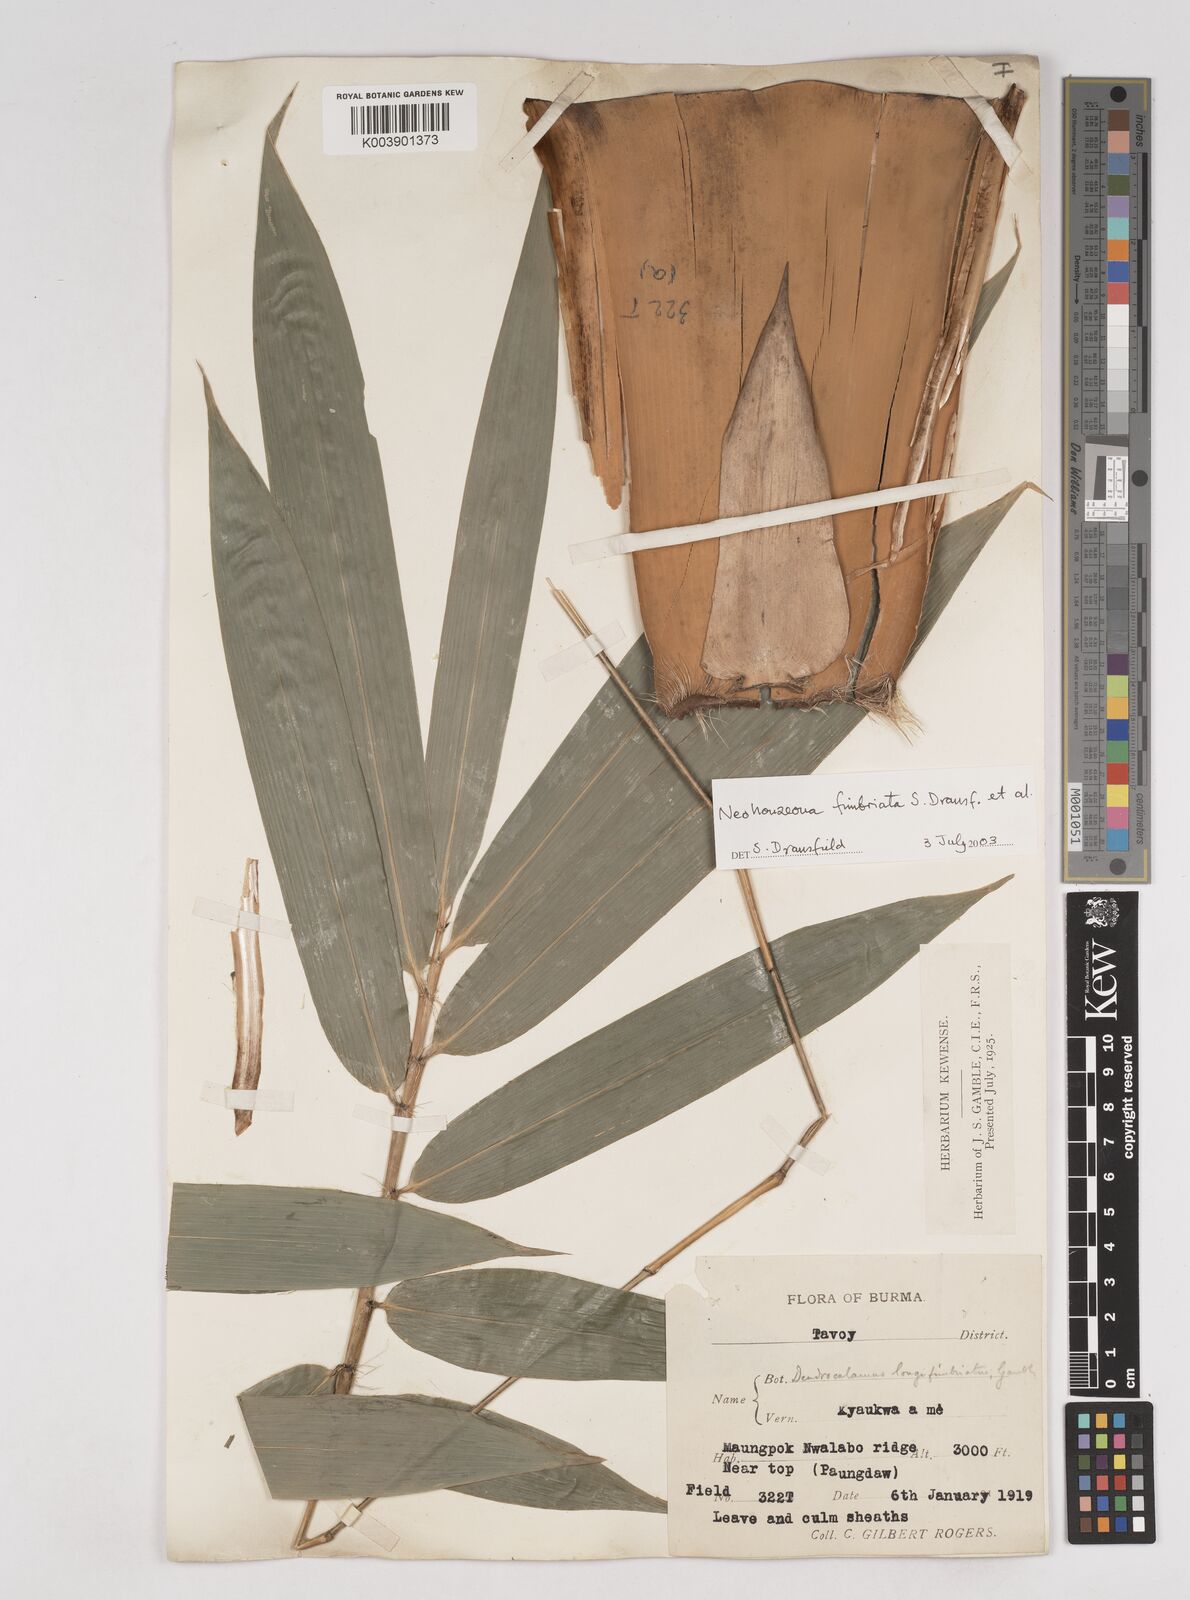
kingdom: Plantae
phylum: Tracheophyta
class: Liliopsida
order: Poales
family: Poaceae
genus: Schizostachyum
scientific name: Schizostachyum
